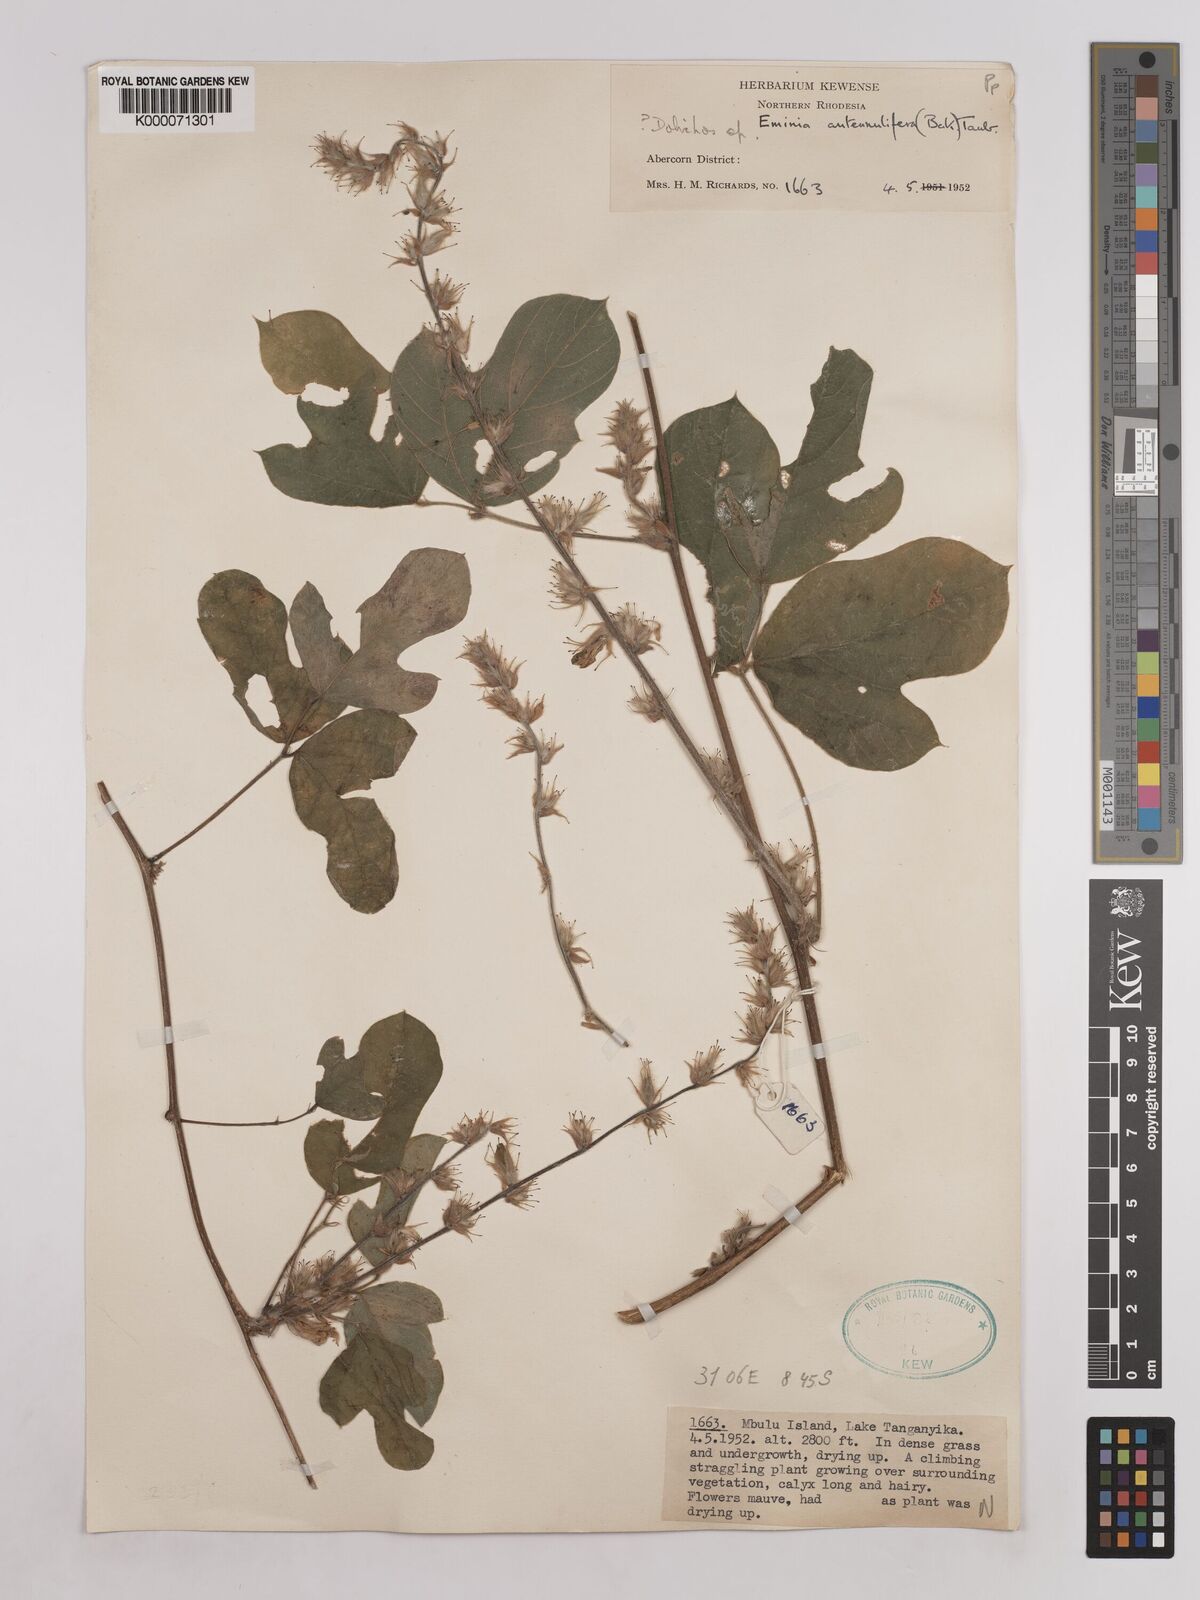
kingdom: Plantae
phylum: Tracheophyta
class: Magnoliopsida
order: Fabales
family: Fabaceae
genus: Eminia
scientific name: Eminia antennulifera
